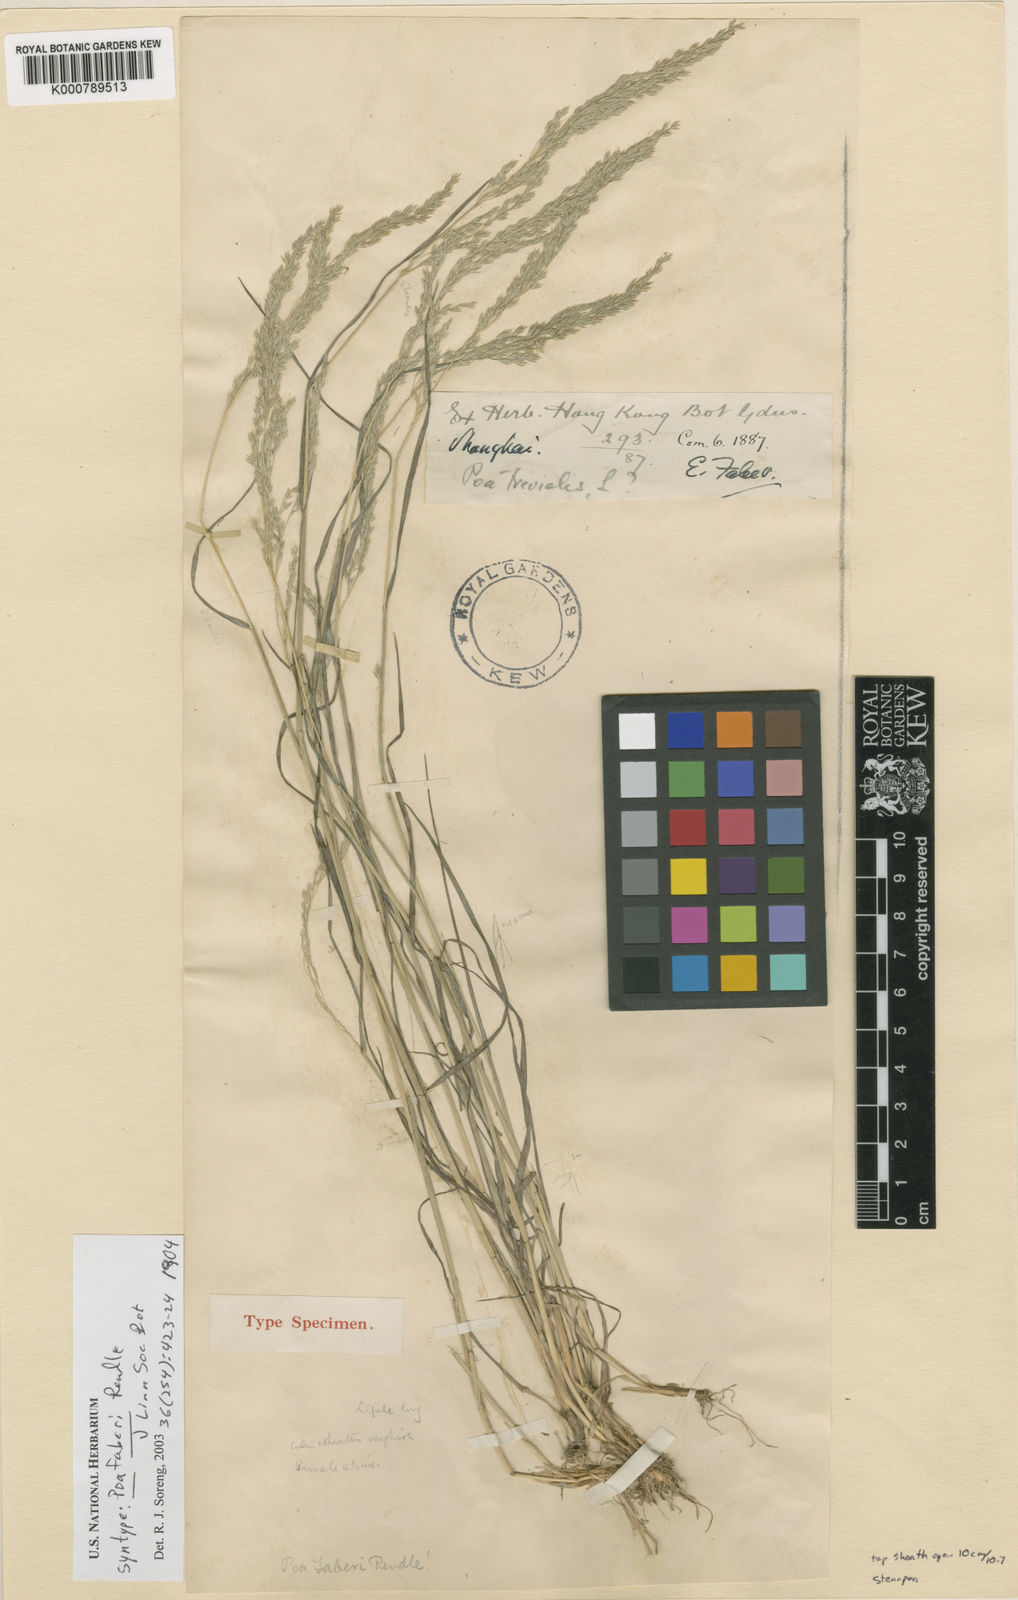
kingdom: Plantae
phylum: Tracheophyta
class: Liliopsida
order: Poales
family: Poaceae
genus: Poa
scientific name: Poa faberi
